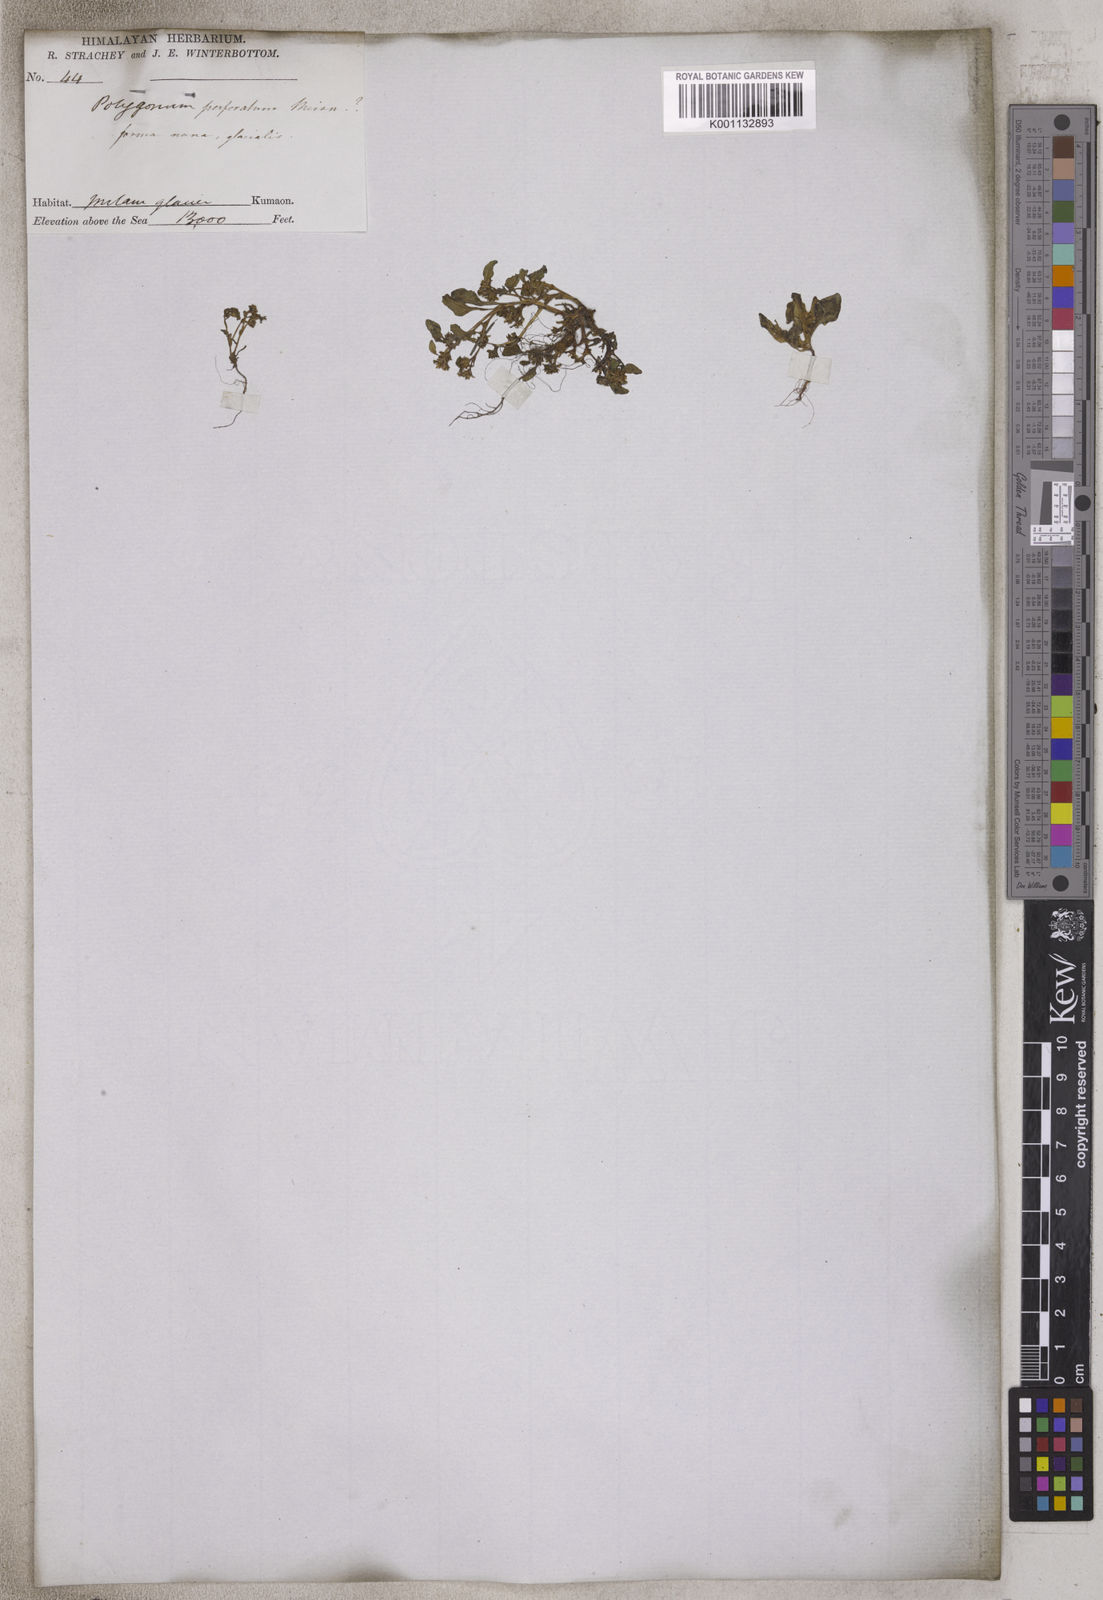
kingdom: Plantae
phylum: Tracheophyta
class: Magnoliopsida
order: Caryophyllales
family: Polygonaceae
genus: Persicaria
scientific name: Persicaria nepalensis
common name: Nepal persicaria
